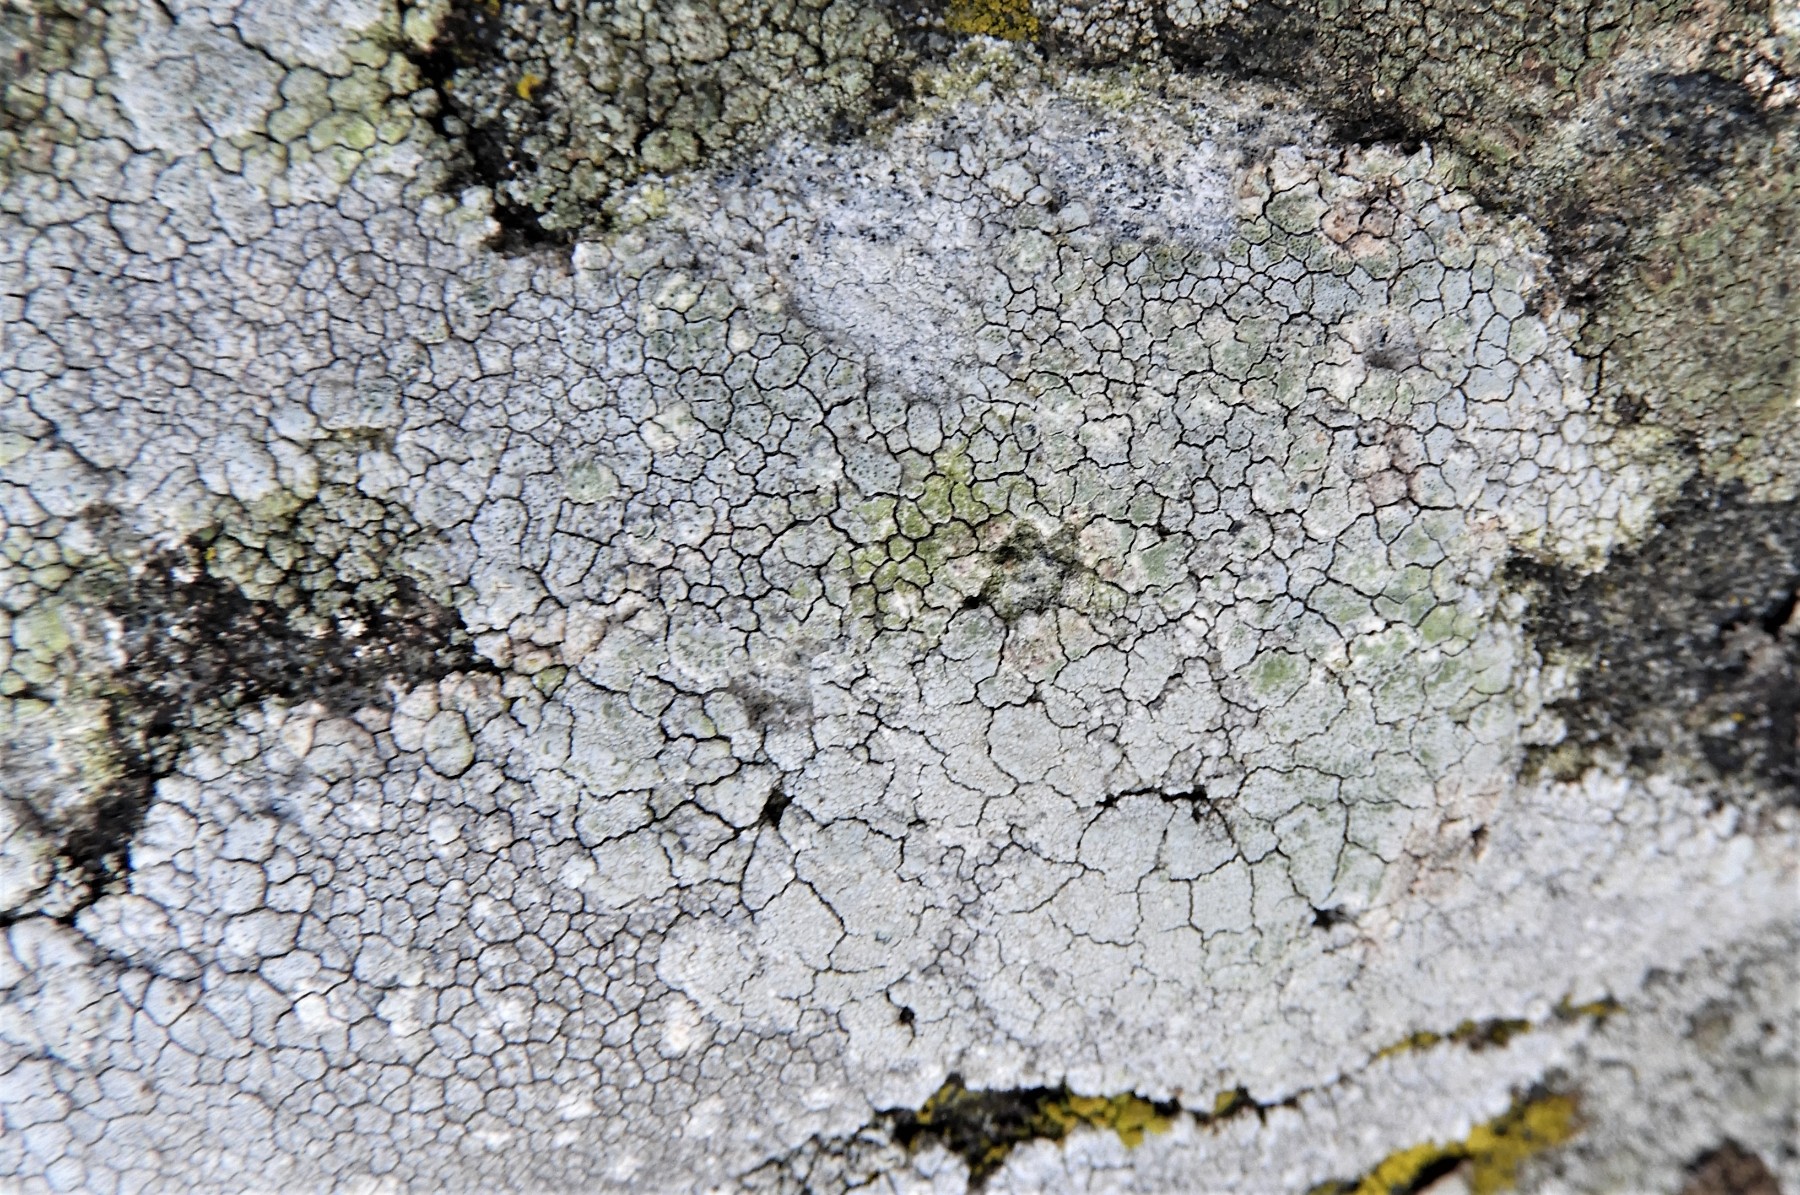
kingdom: Fungi
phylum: Ascomycota
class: Lecanoromycetes
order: Lecanorales
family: Lecanoraceae
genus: Glaucomaria
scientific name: Glaucomaria rupicola
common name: stengærde-kantskivelav
